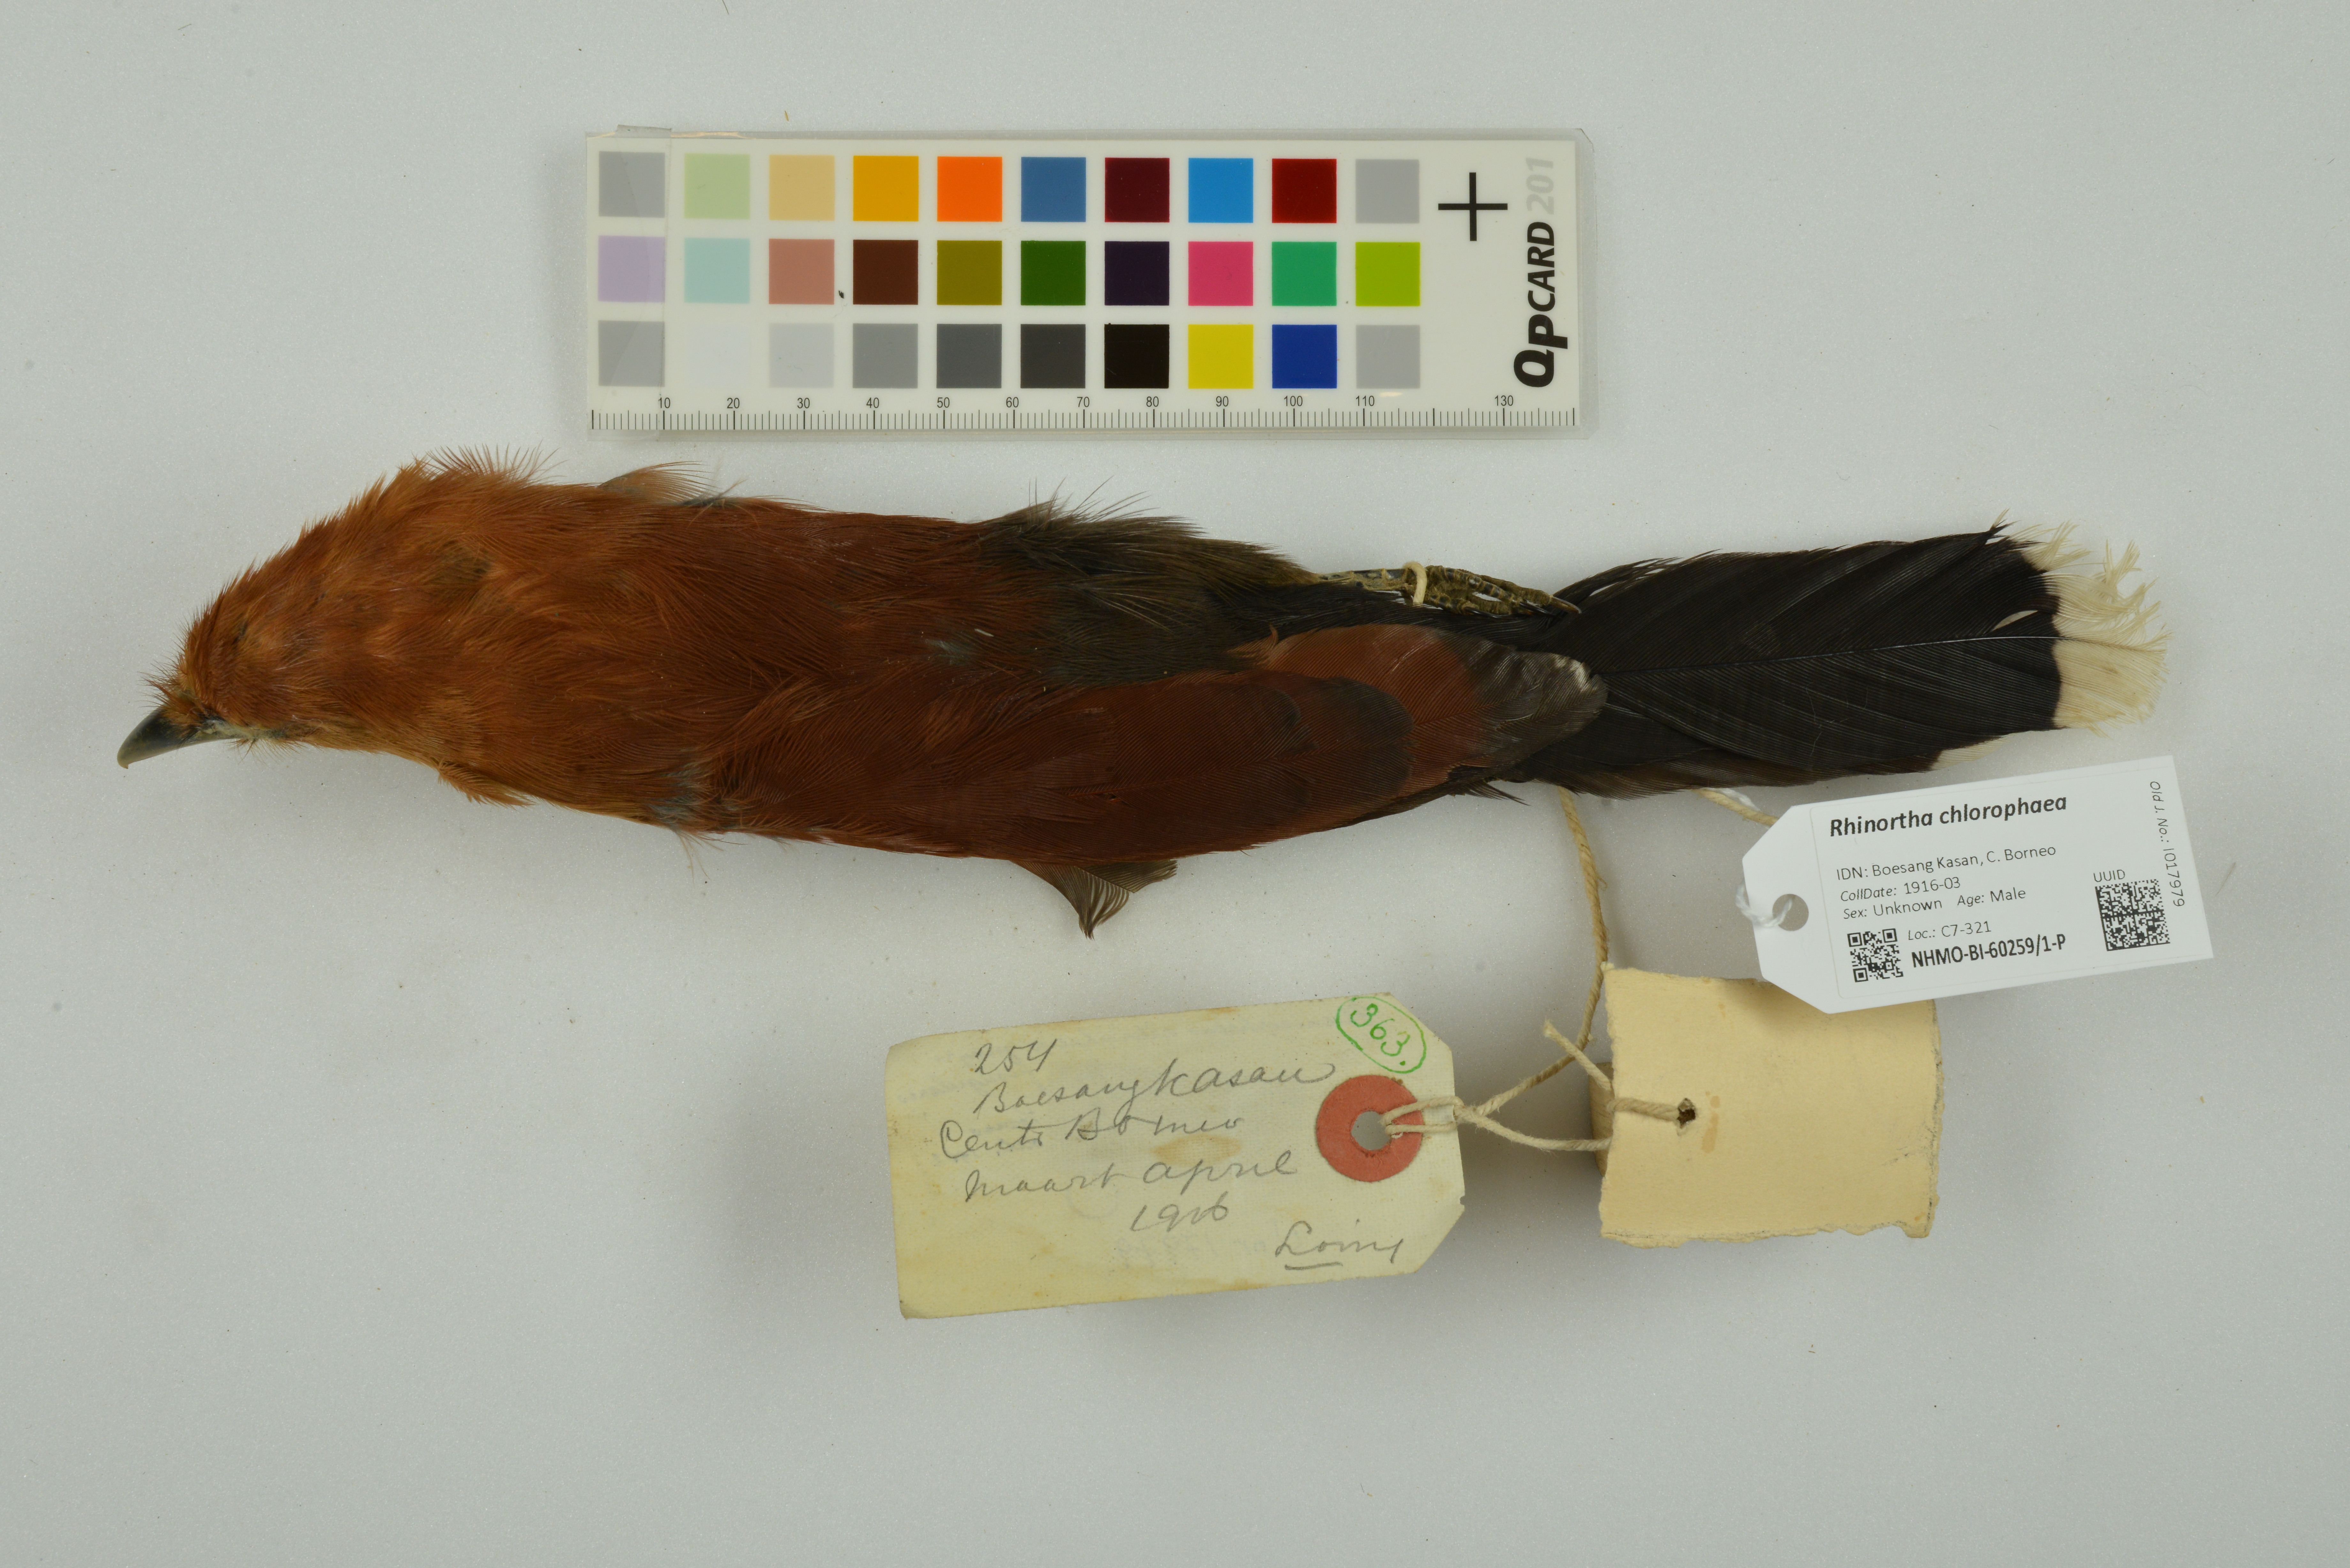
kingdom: Animalia
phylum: Chordata
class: Aves
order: Cuculiformes
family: Cuculidae
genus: Rhinortha
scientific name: Rhinortha chlorophaea
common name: Raffles's malkoha
